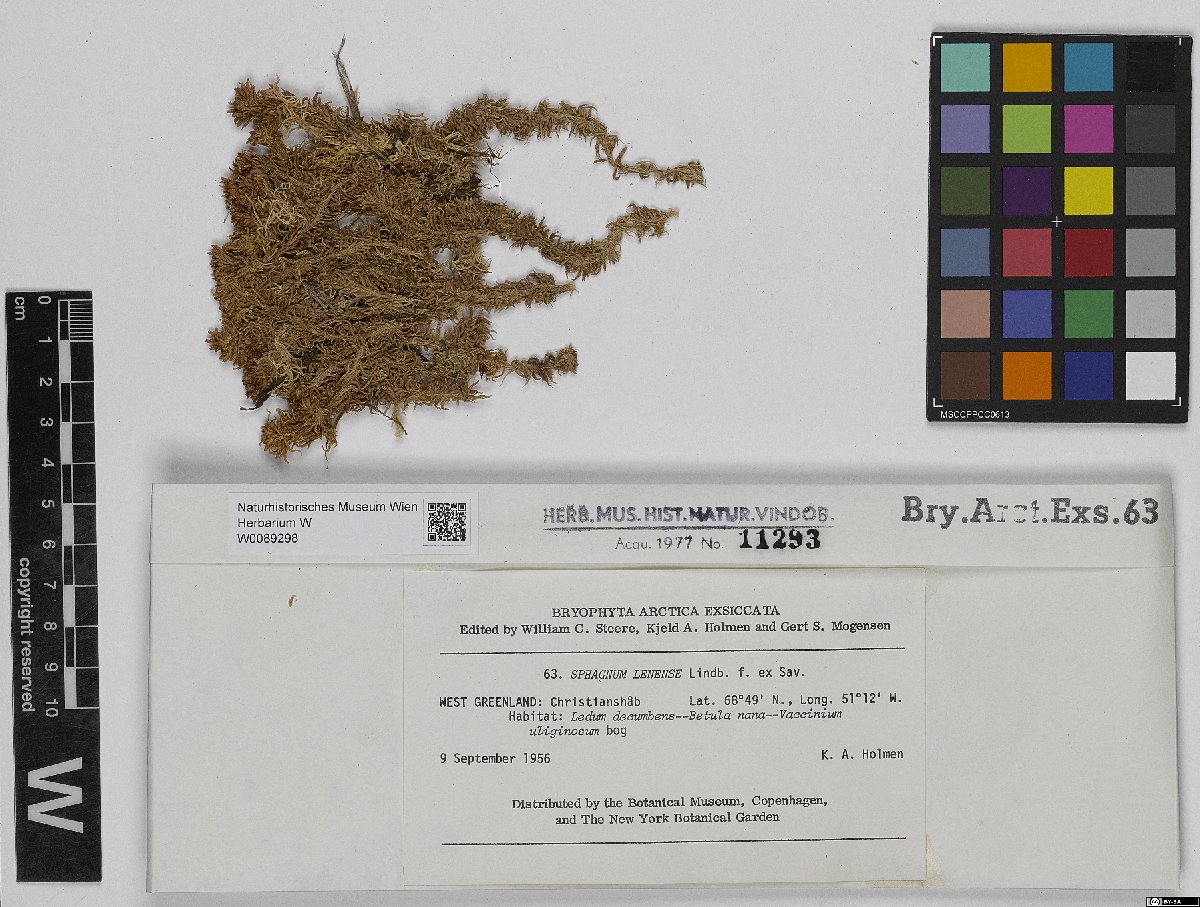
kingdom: Plantae
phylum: Bryophyta
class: Sphagnopsida
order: Sphagnales
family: Sphagnaceae
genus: Sphagnum
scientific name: Sphagnum lenense
